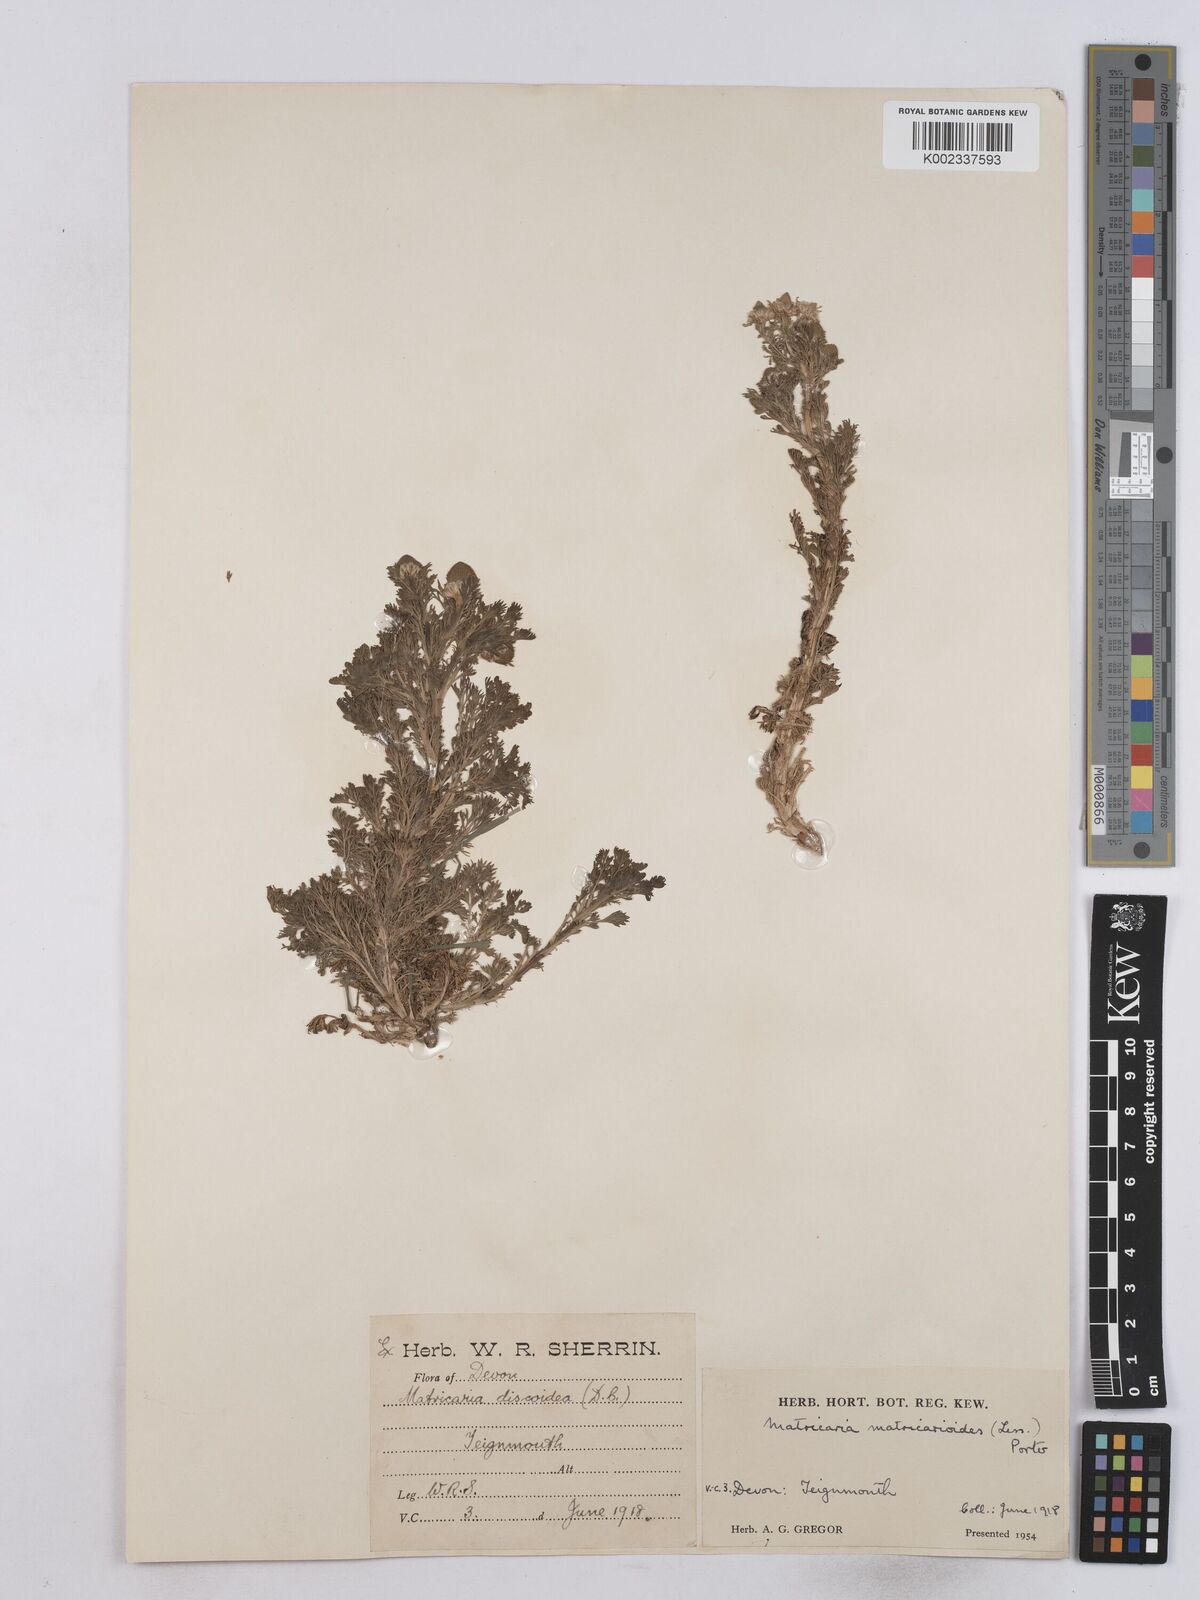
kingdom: Plantae
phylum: Tracheophyta
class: Magnoliopsida
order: Asterales
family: Asteraceae
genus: Matricaria
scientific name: Matricaria discoidea
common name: Disc mayweed
